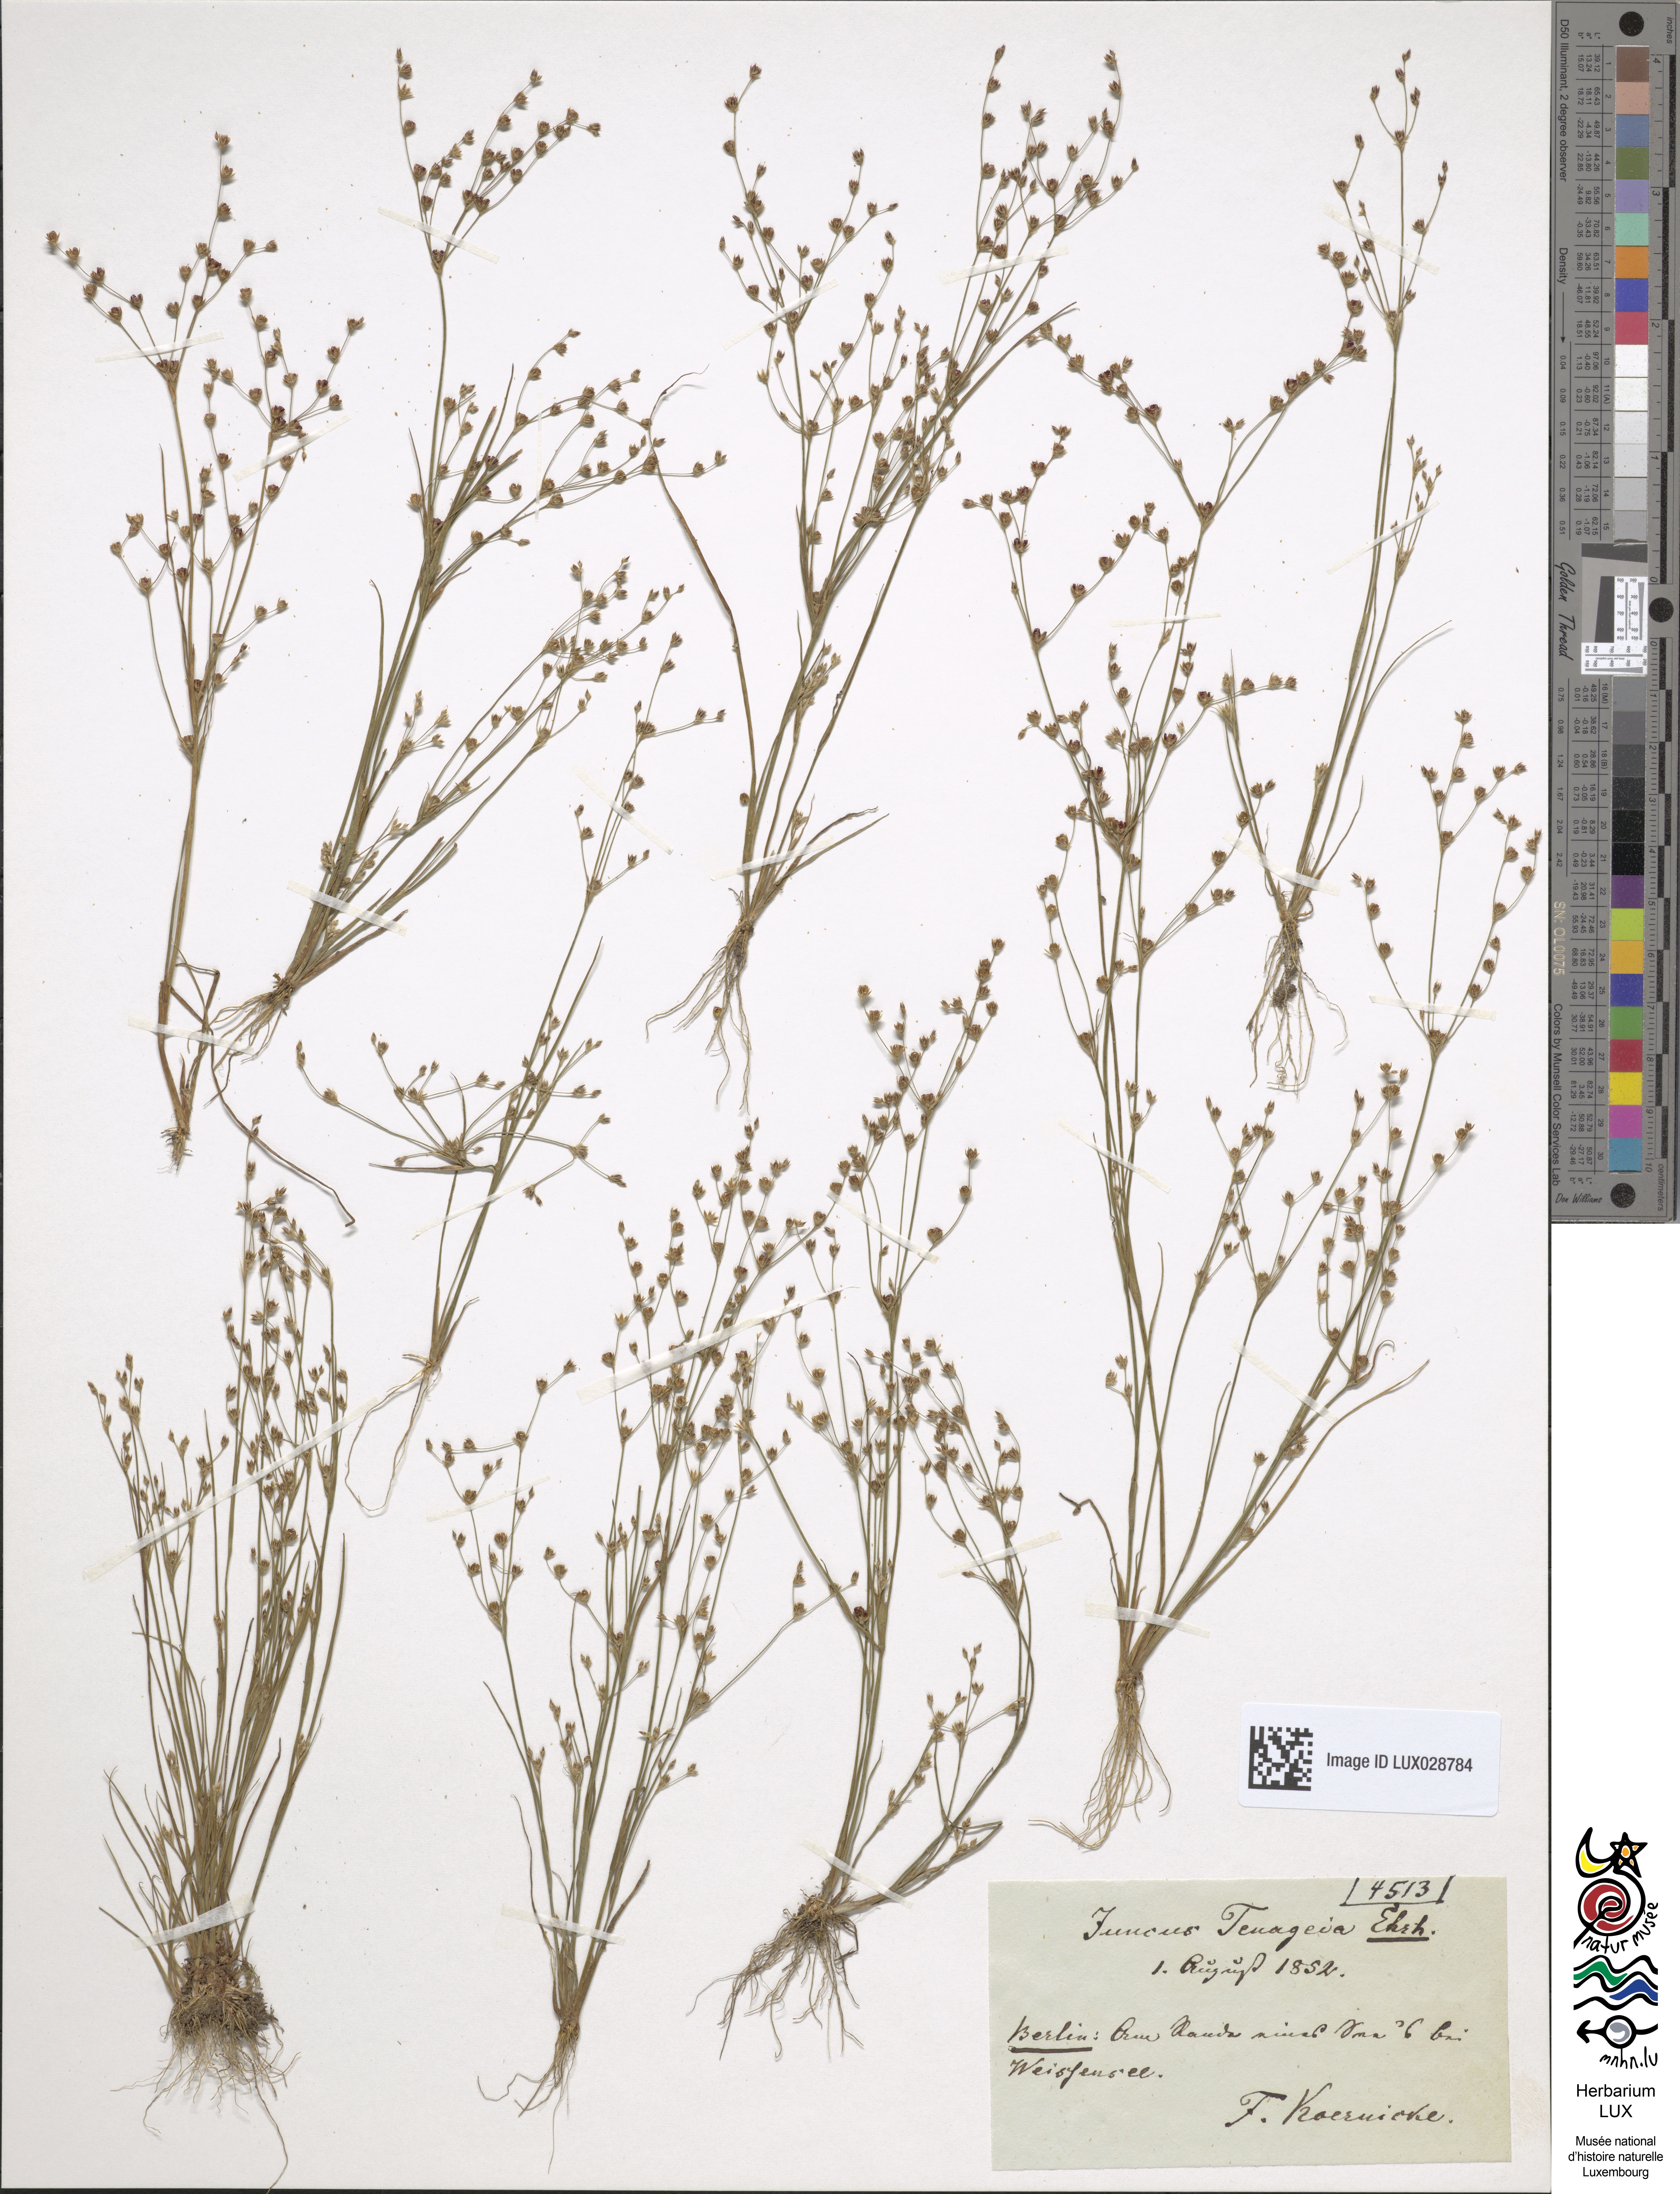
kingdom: Plantae
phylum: Tracheophyta
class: Liliopsida
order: Poales
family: Juncaceae
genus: Juncus
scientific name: Juncus tenageia
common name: Sand rush
